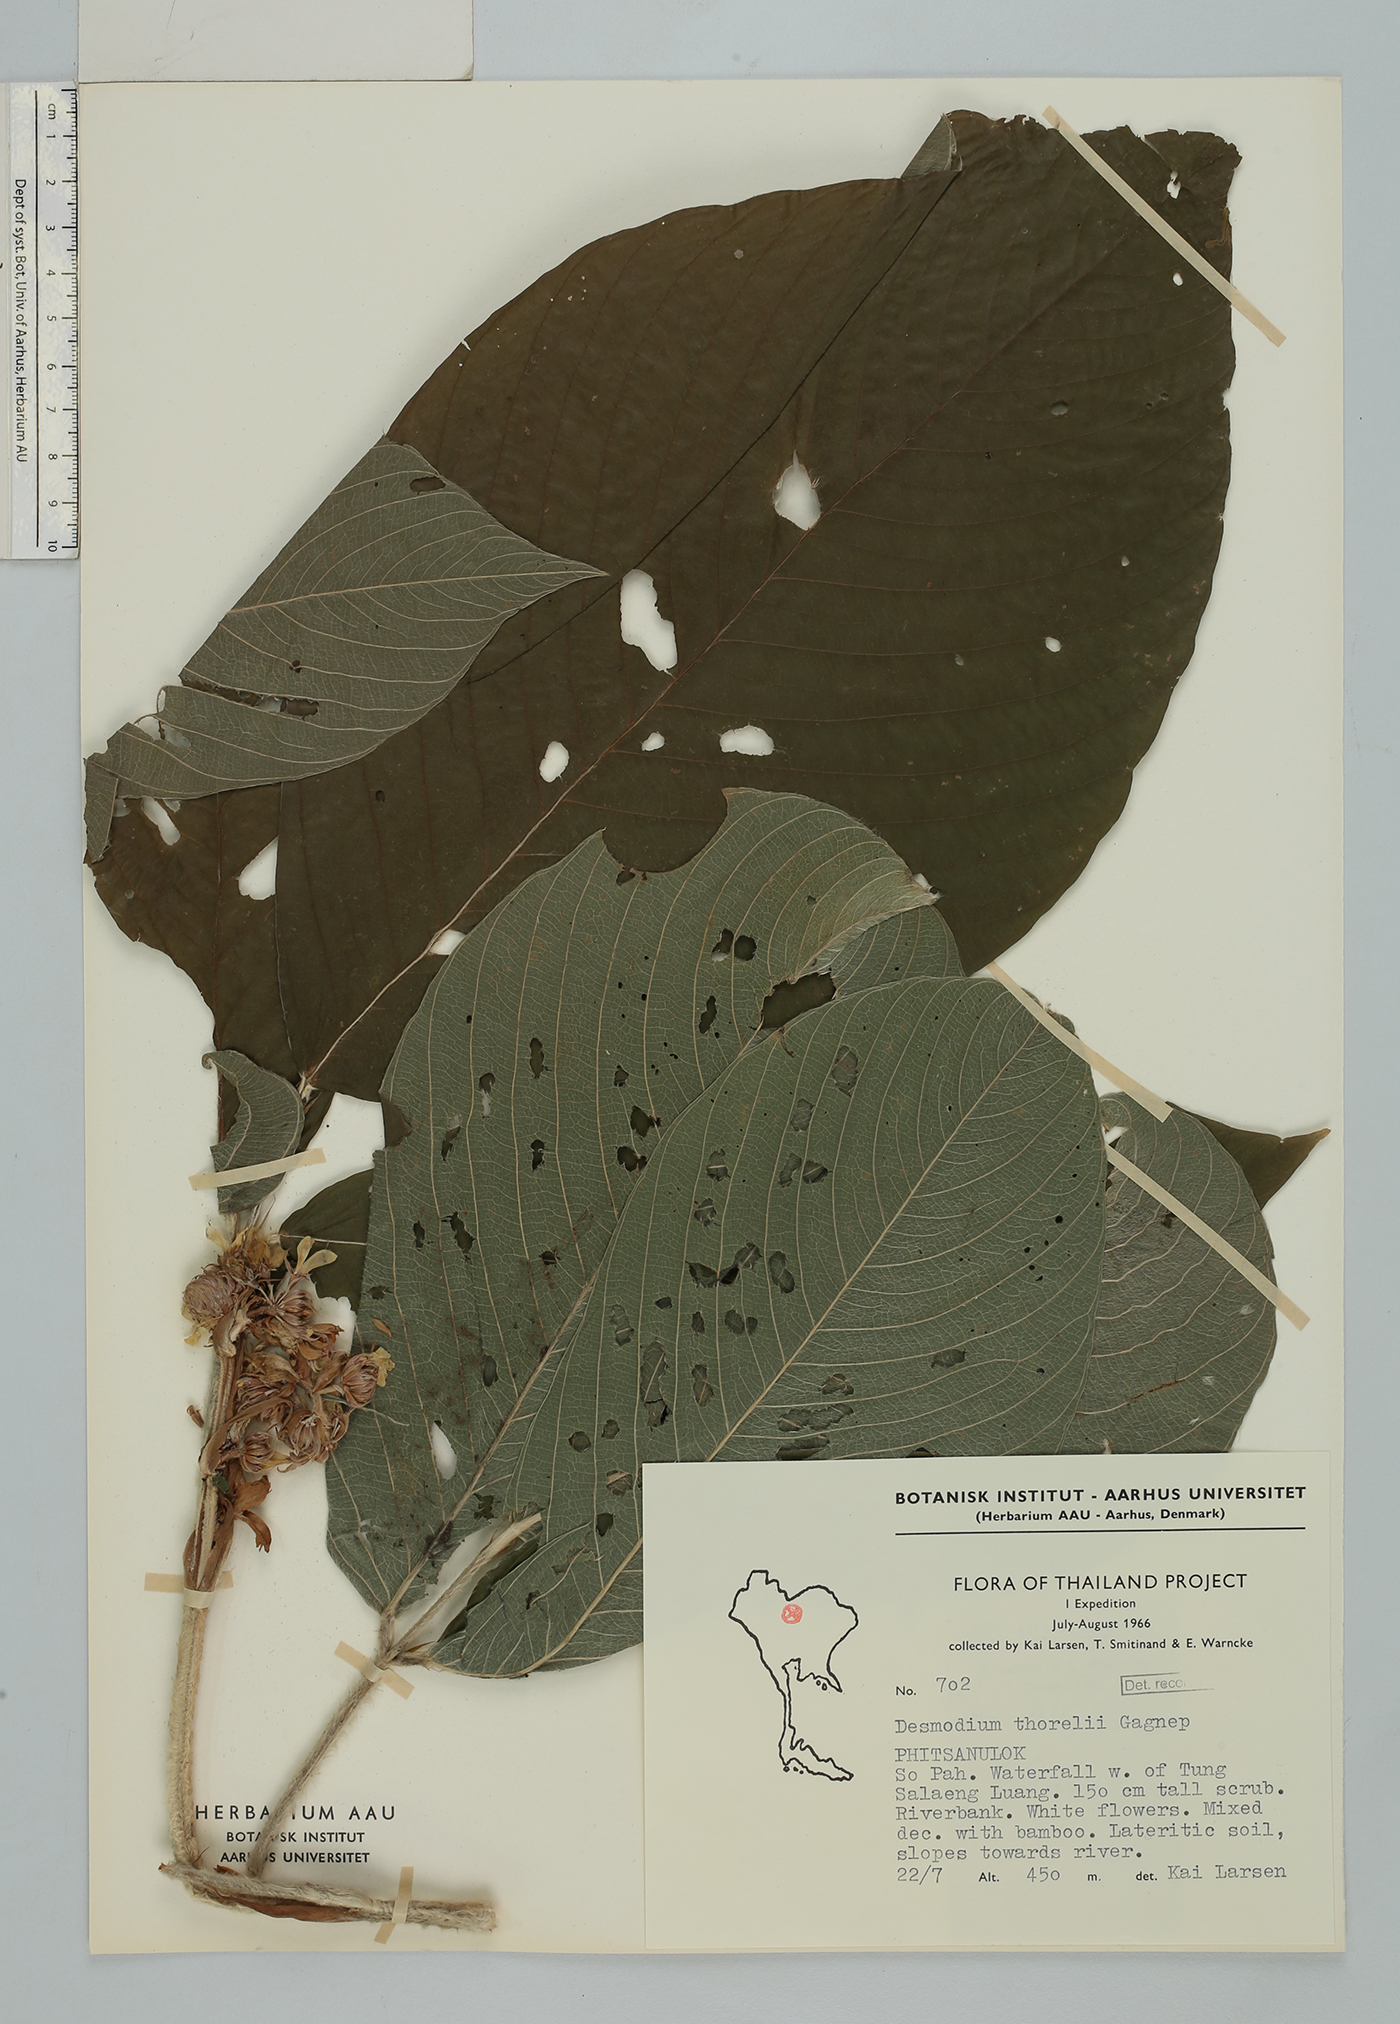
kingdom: Plantae
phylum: Tracheophyta
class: Magnoliopsida
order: Fabales
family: Fabaceae
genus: Dendrolobium
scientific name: Dendrolobium thorelii
